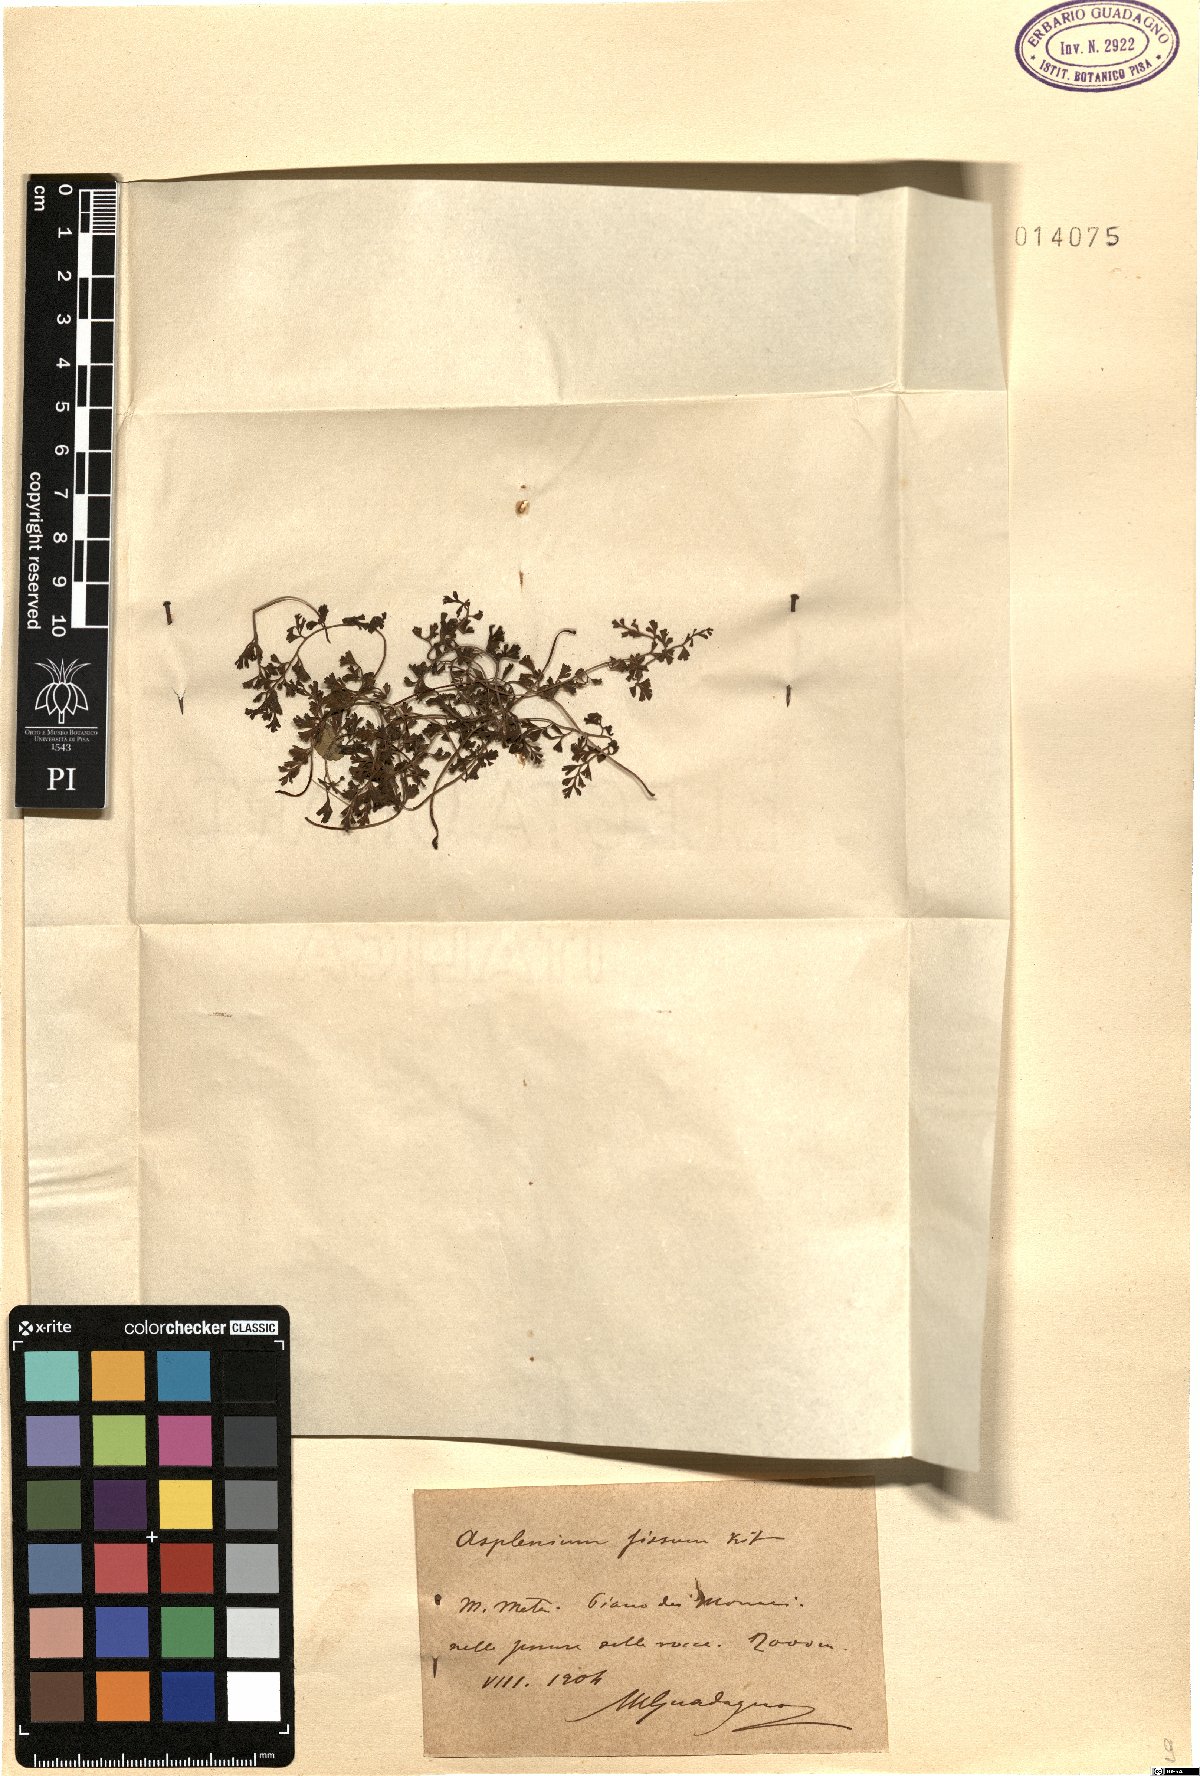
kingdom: Plantae
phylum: Tracheophyta
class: Polypodiopsida
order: Polypodiales
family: Aspleniaceae
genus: Asplenium
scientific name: Asplenium fissum
